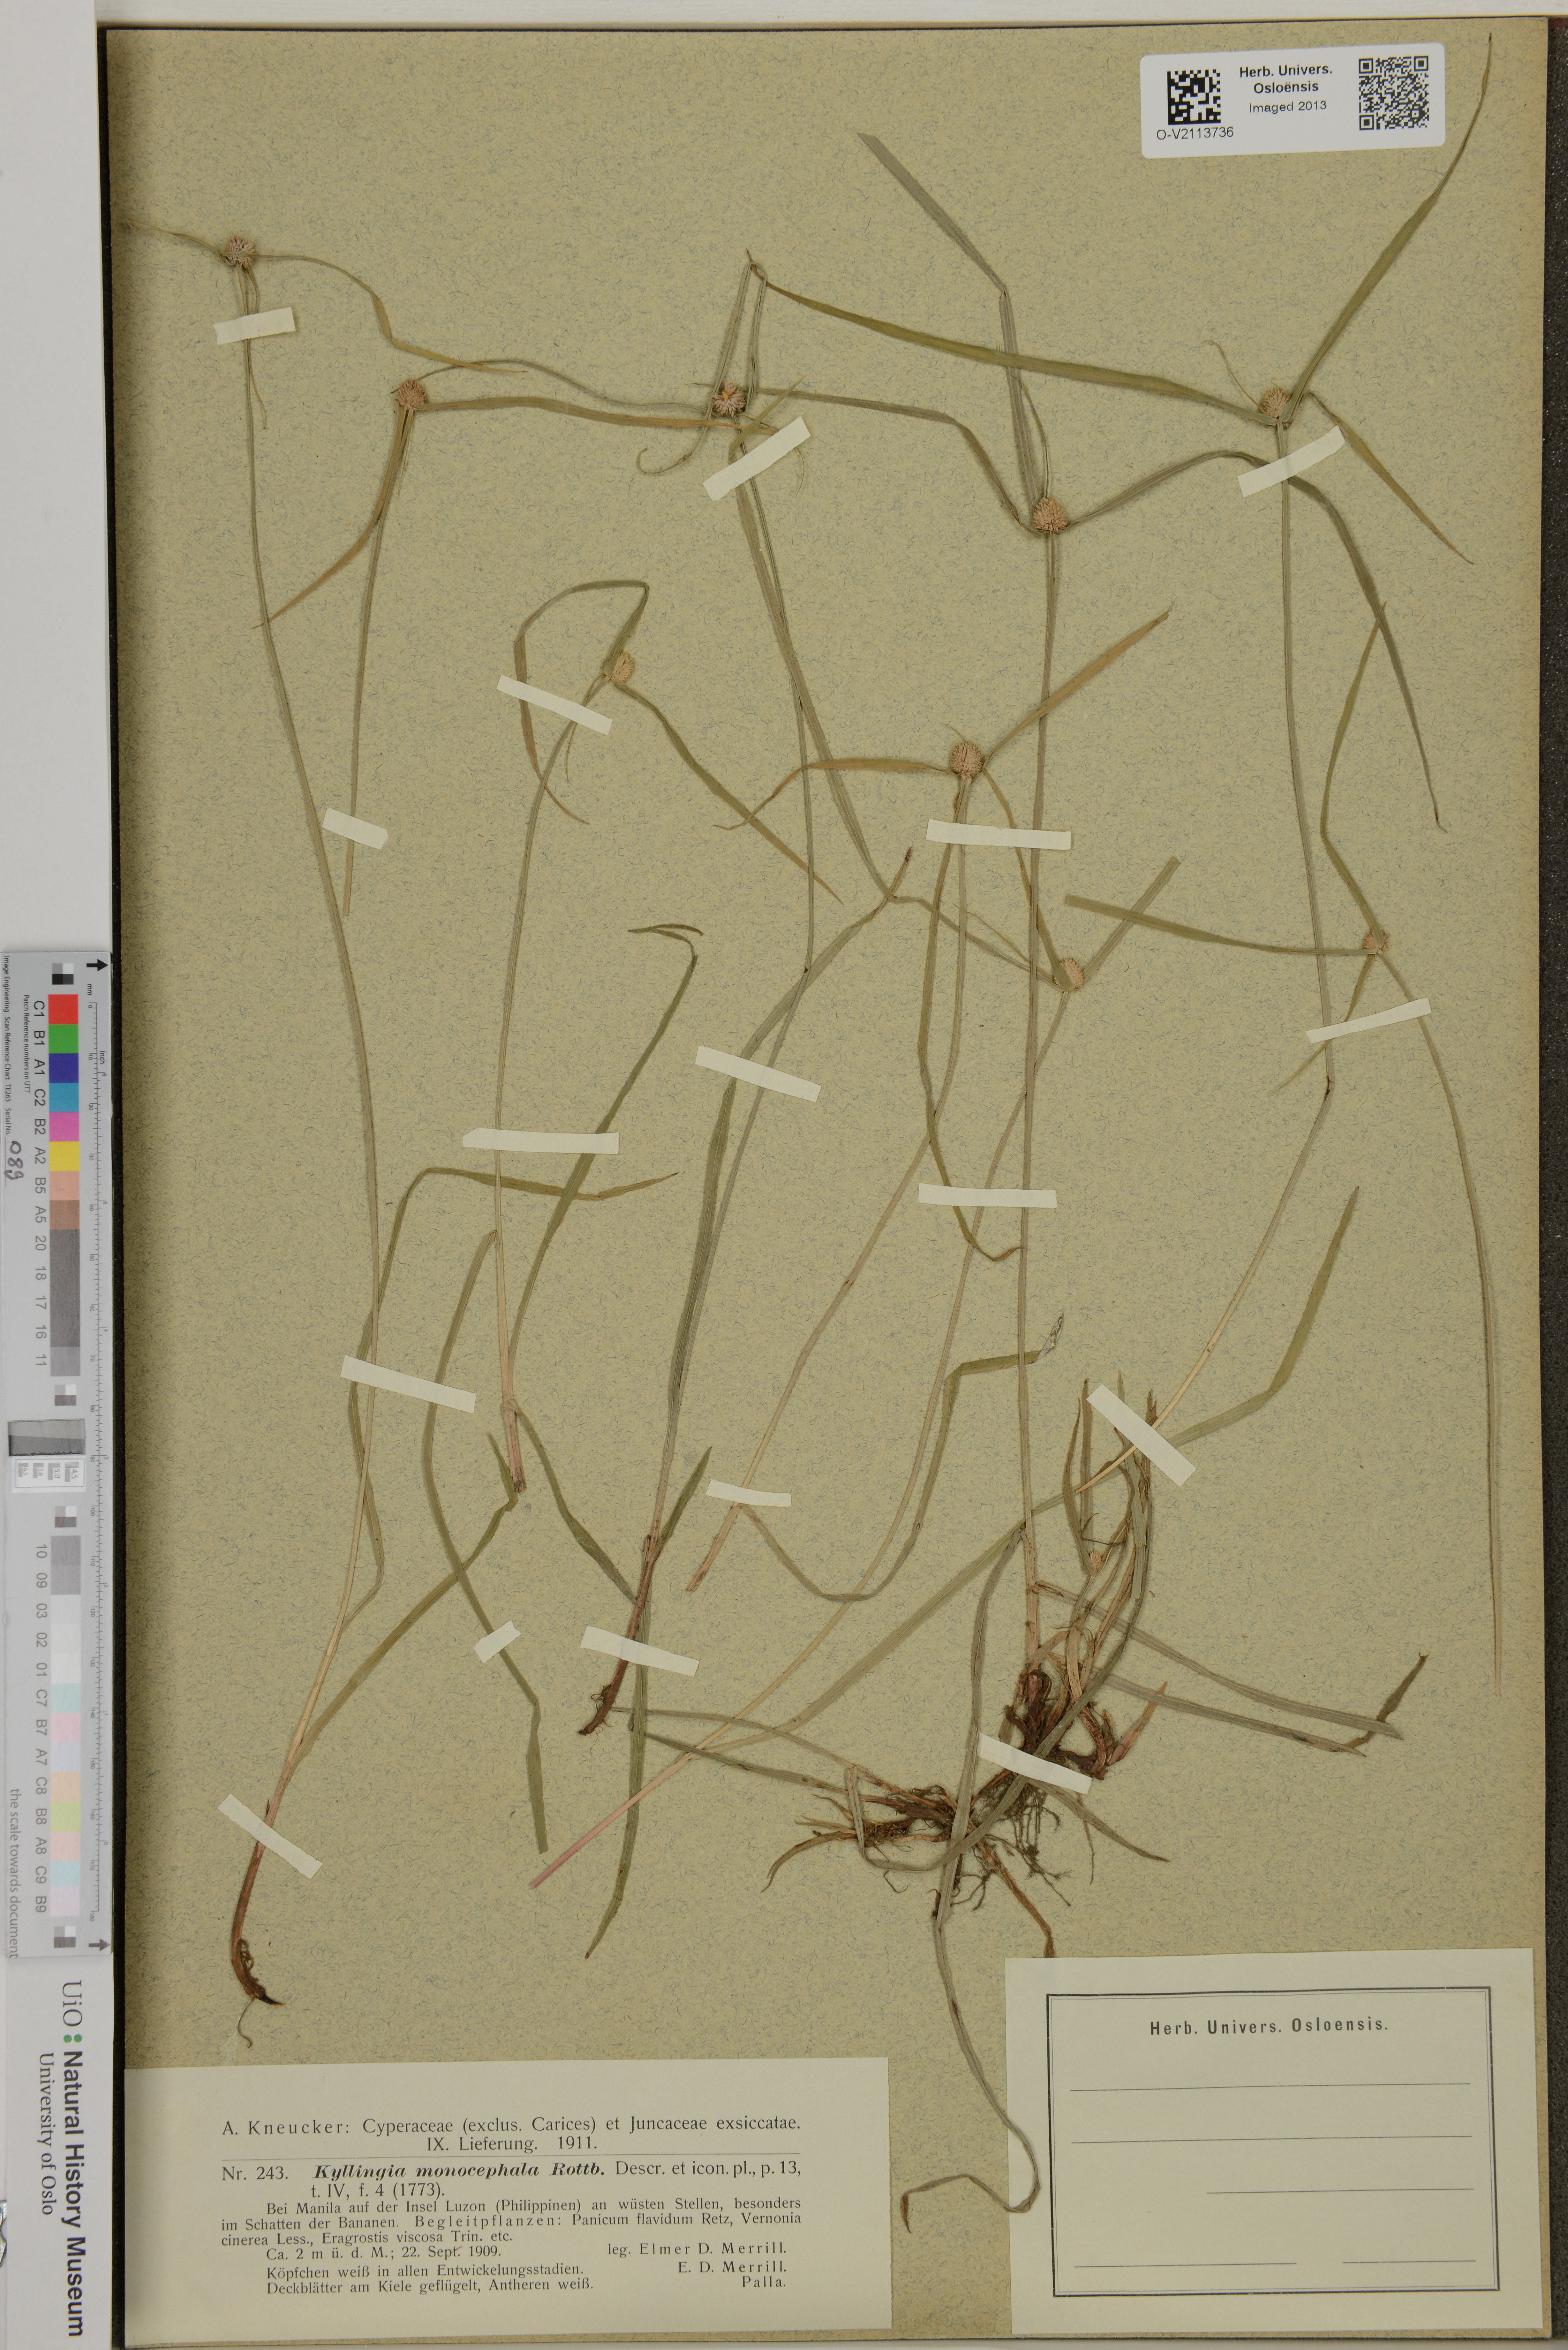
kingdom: Plantae
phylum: Tracheophyta
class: Liliopsida
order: Poales
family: Cyperaceae
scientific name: Cyperaceae
